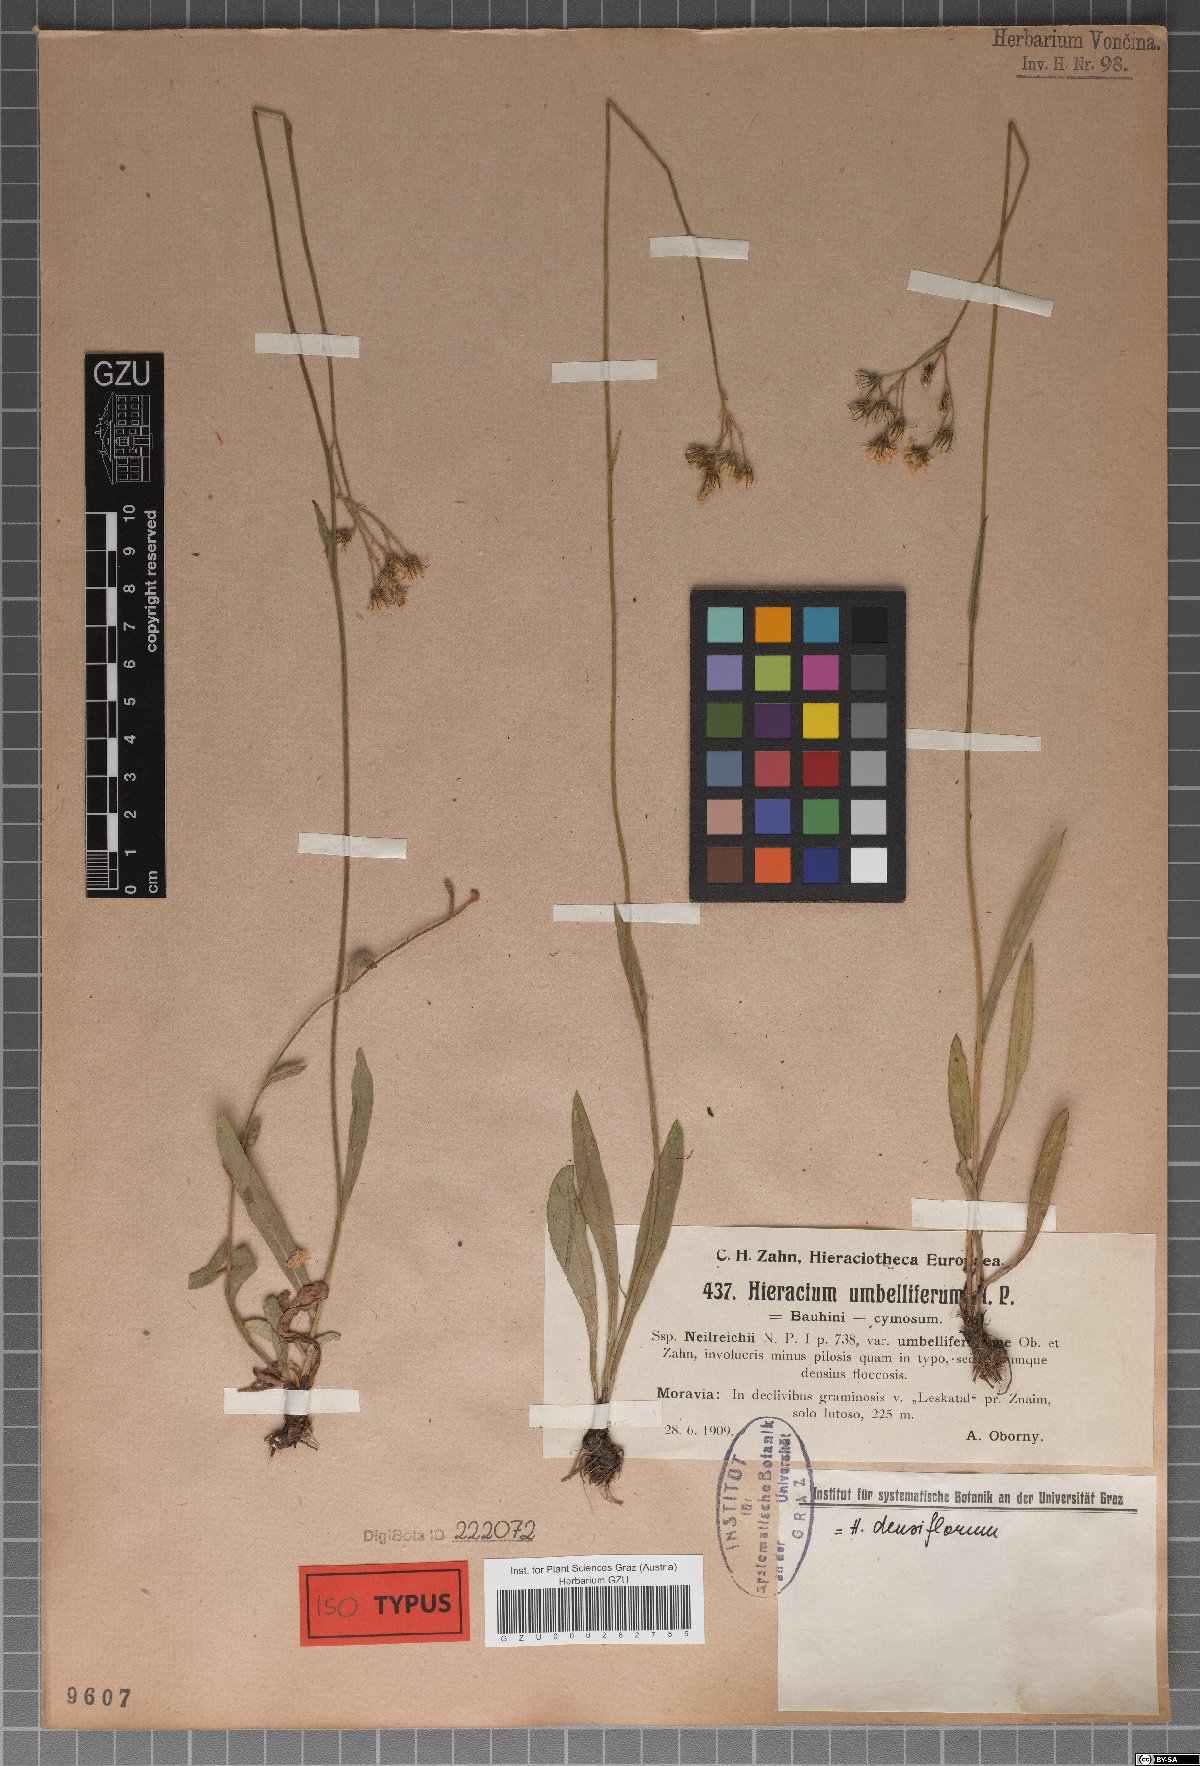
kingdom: Plantae
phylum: Tracheophyta
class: Magnoliopsida
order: Asterales
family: Asteraceae
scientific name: Asteraceae
